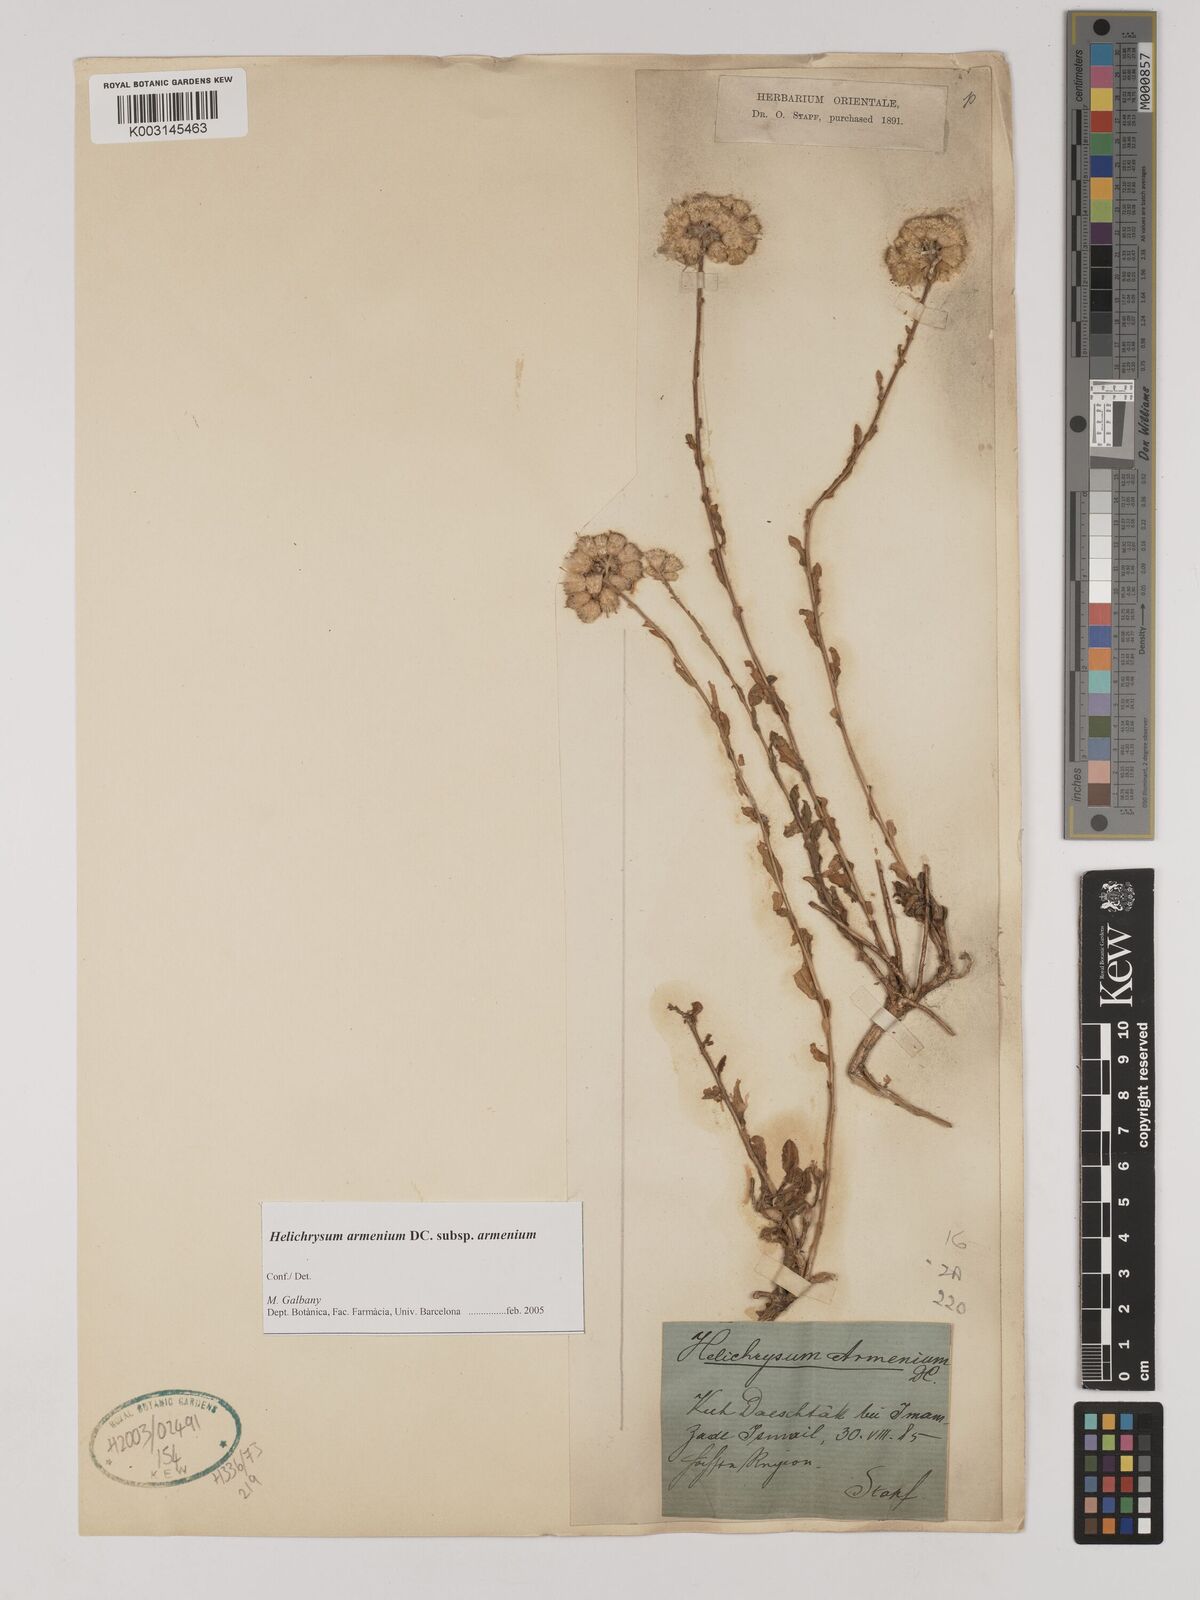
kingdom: Plantae
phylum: Tracheophyta
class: Magnoliopsida
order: Asterales
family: Asteraceae
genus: Helichrysum
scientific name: Helichrysum armenium
